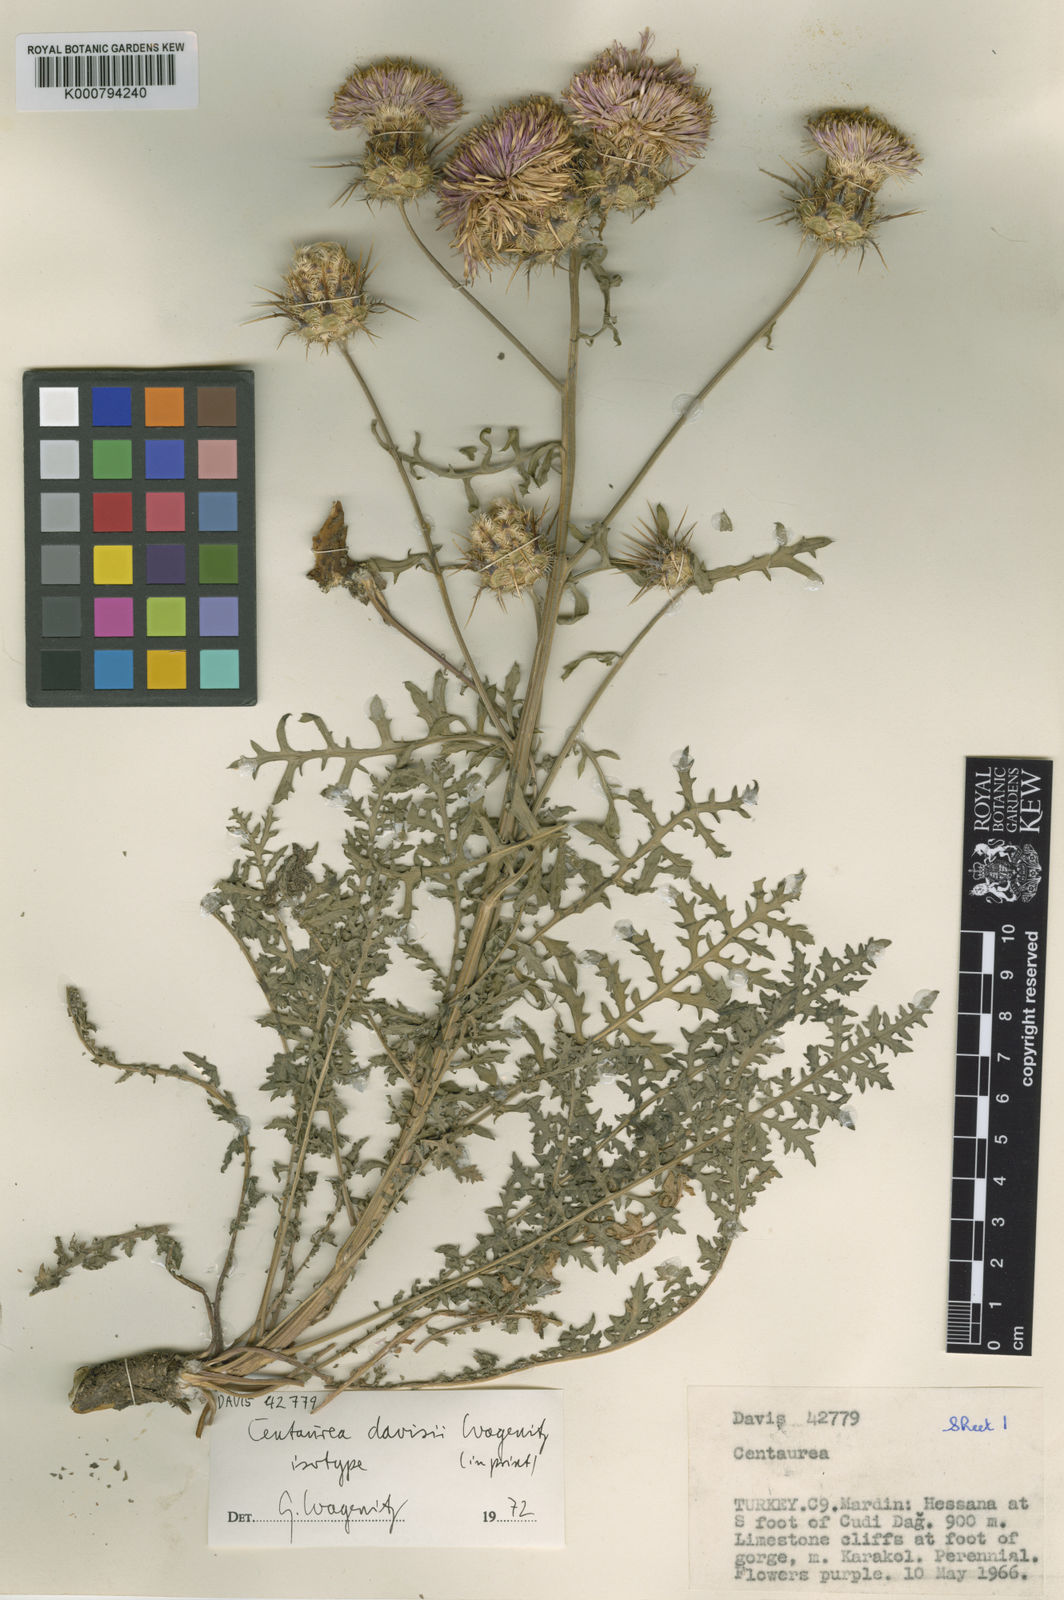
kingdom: Plantae
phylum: Tracheophyta
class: Magnoliopsida
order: Asterales
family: Asteraceae
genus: Centaurea
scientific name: Centaurea davisii
